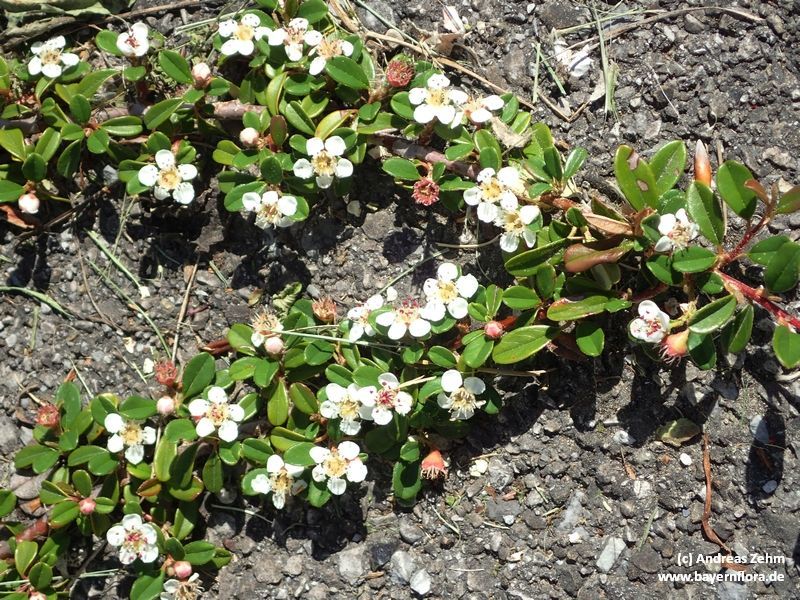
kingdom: Plantae
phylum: Tracheophyta
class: Magnoliopsida
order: Rosales
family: Rosaceae
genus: Cotoneaster
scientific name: Cotoneaster dammeri
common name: Bearberry cotoneaster
